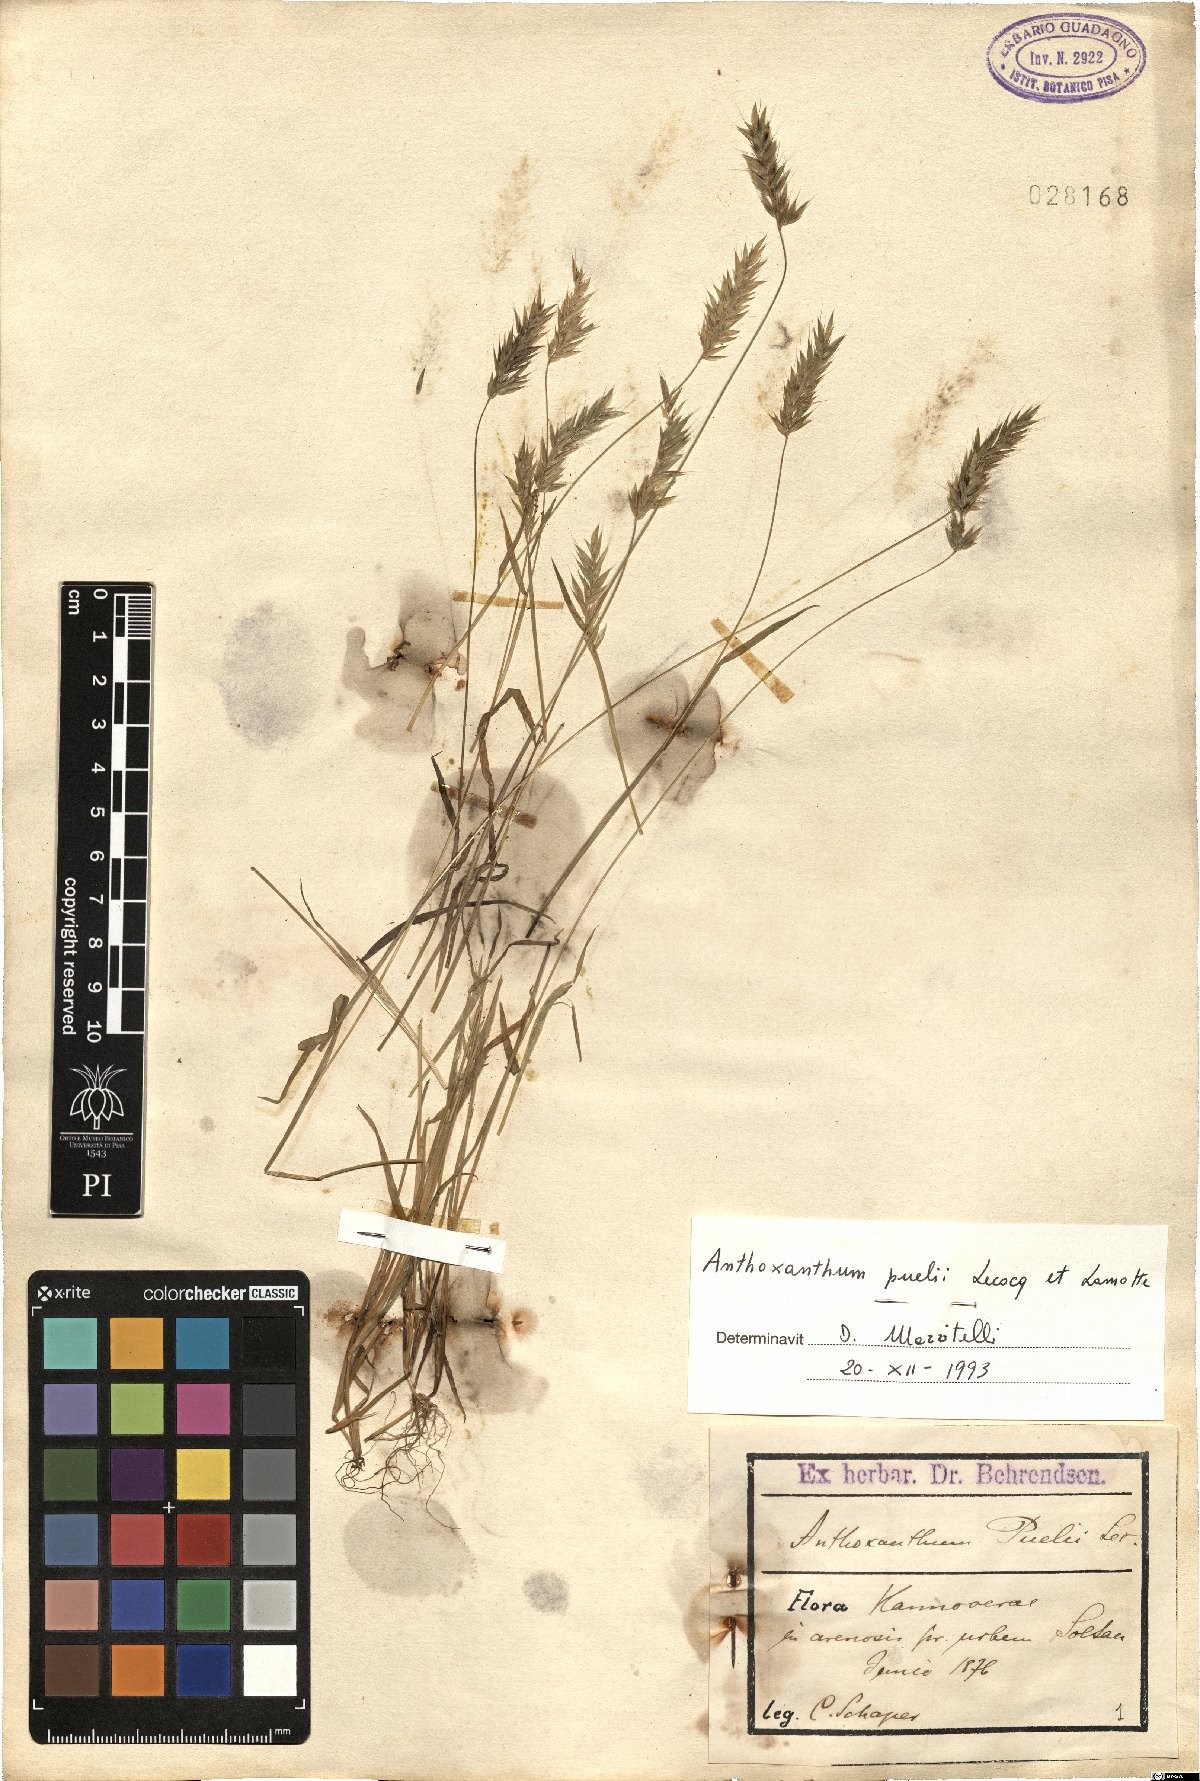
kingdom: Plantae
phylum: Tracheophyta
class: Liliopsida
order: Poales
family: Poaceae
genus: Anthoxanthum
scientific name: Anthoxanthum aristatum
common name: Annual vernal-grass
